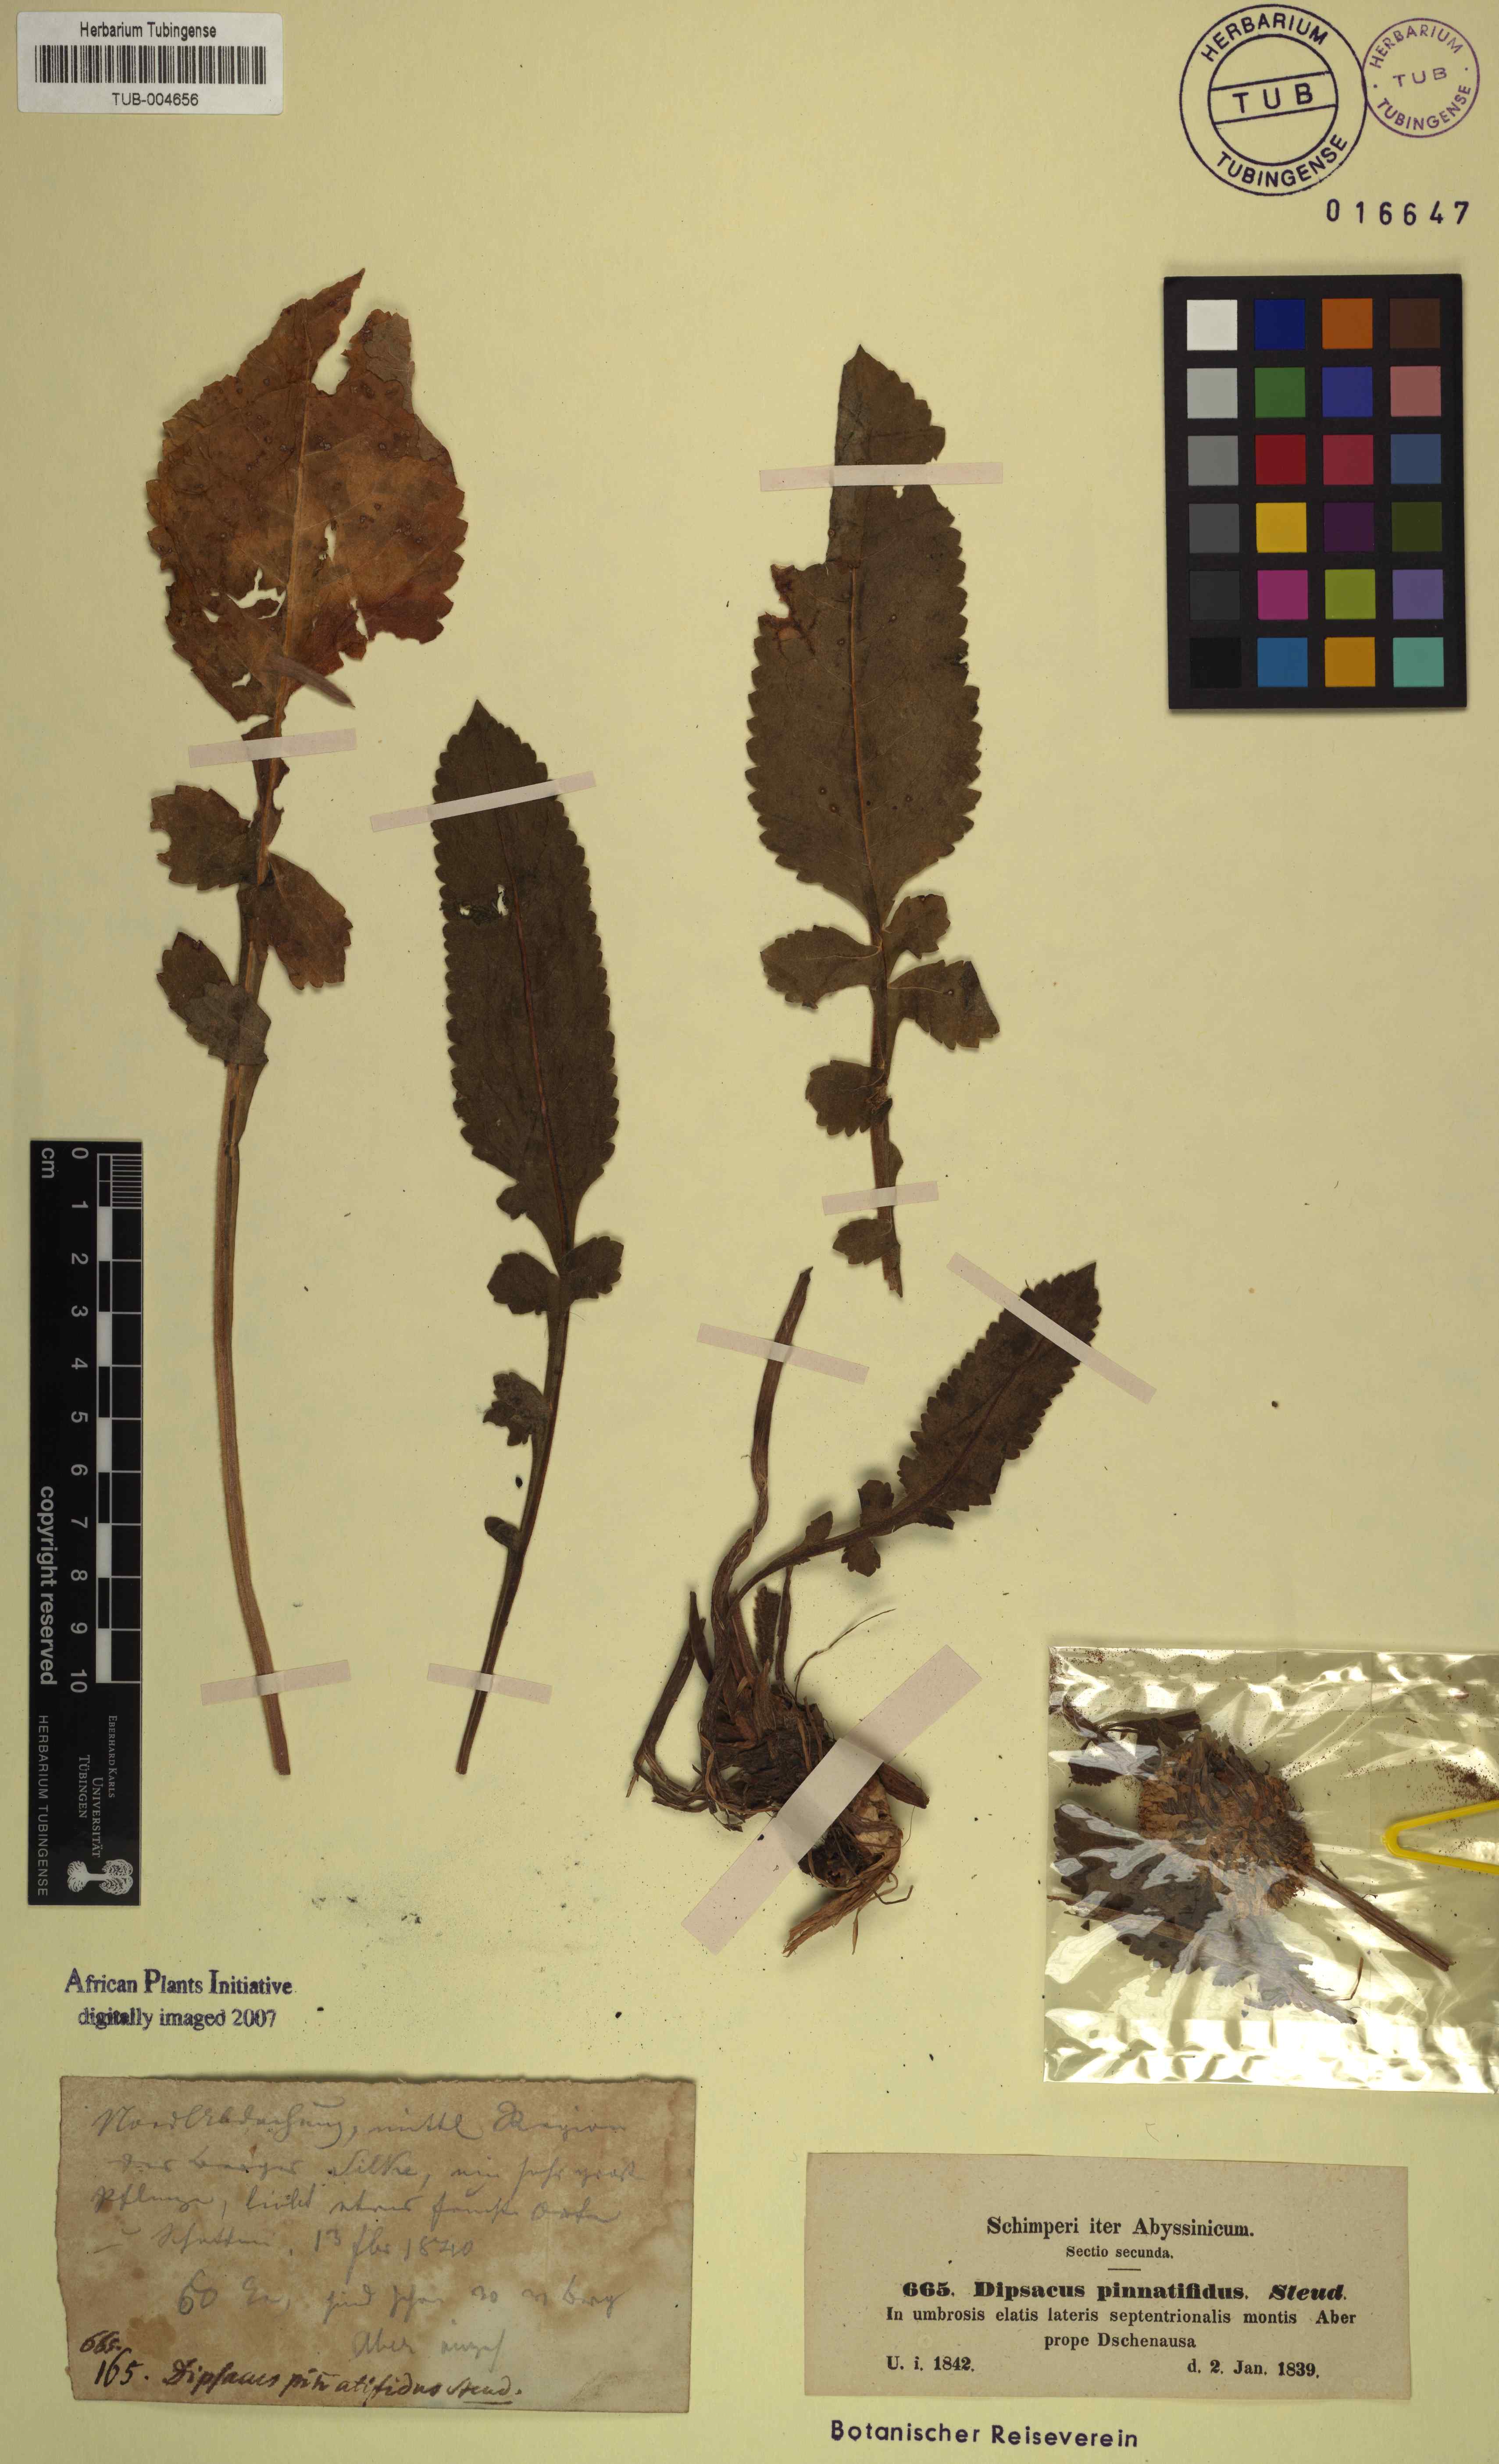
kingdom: Plantae
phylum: Tracheophyta
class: Magnoliopsida
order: Dipsacales
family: Caprifoliaceae
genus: Dipsacus
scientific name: Dipsacus pinnatifidus
